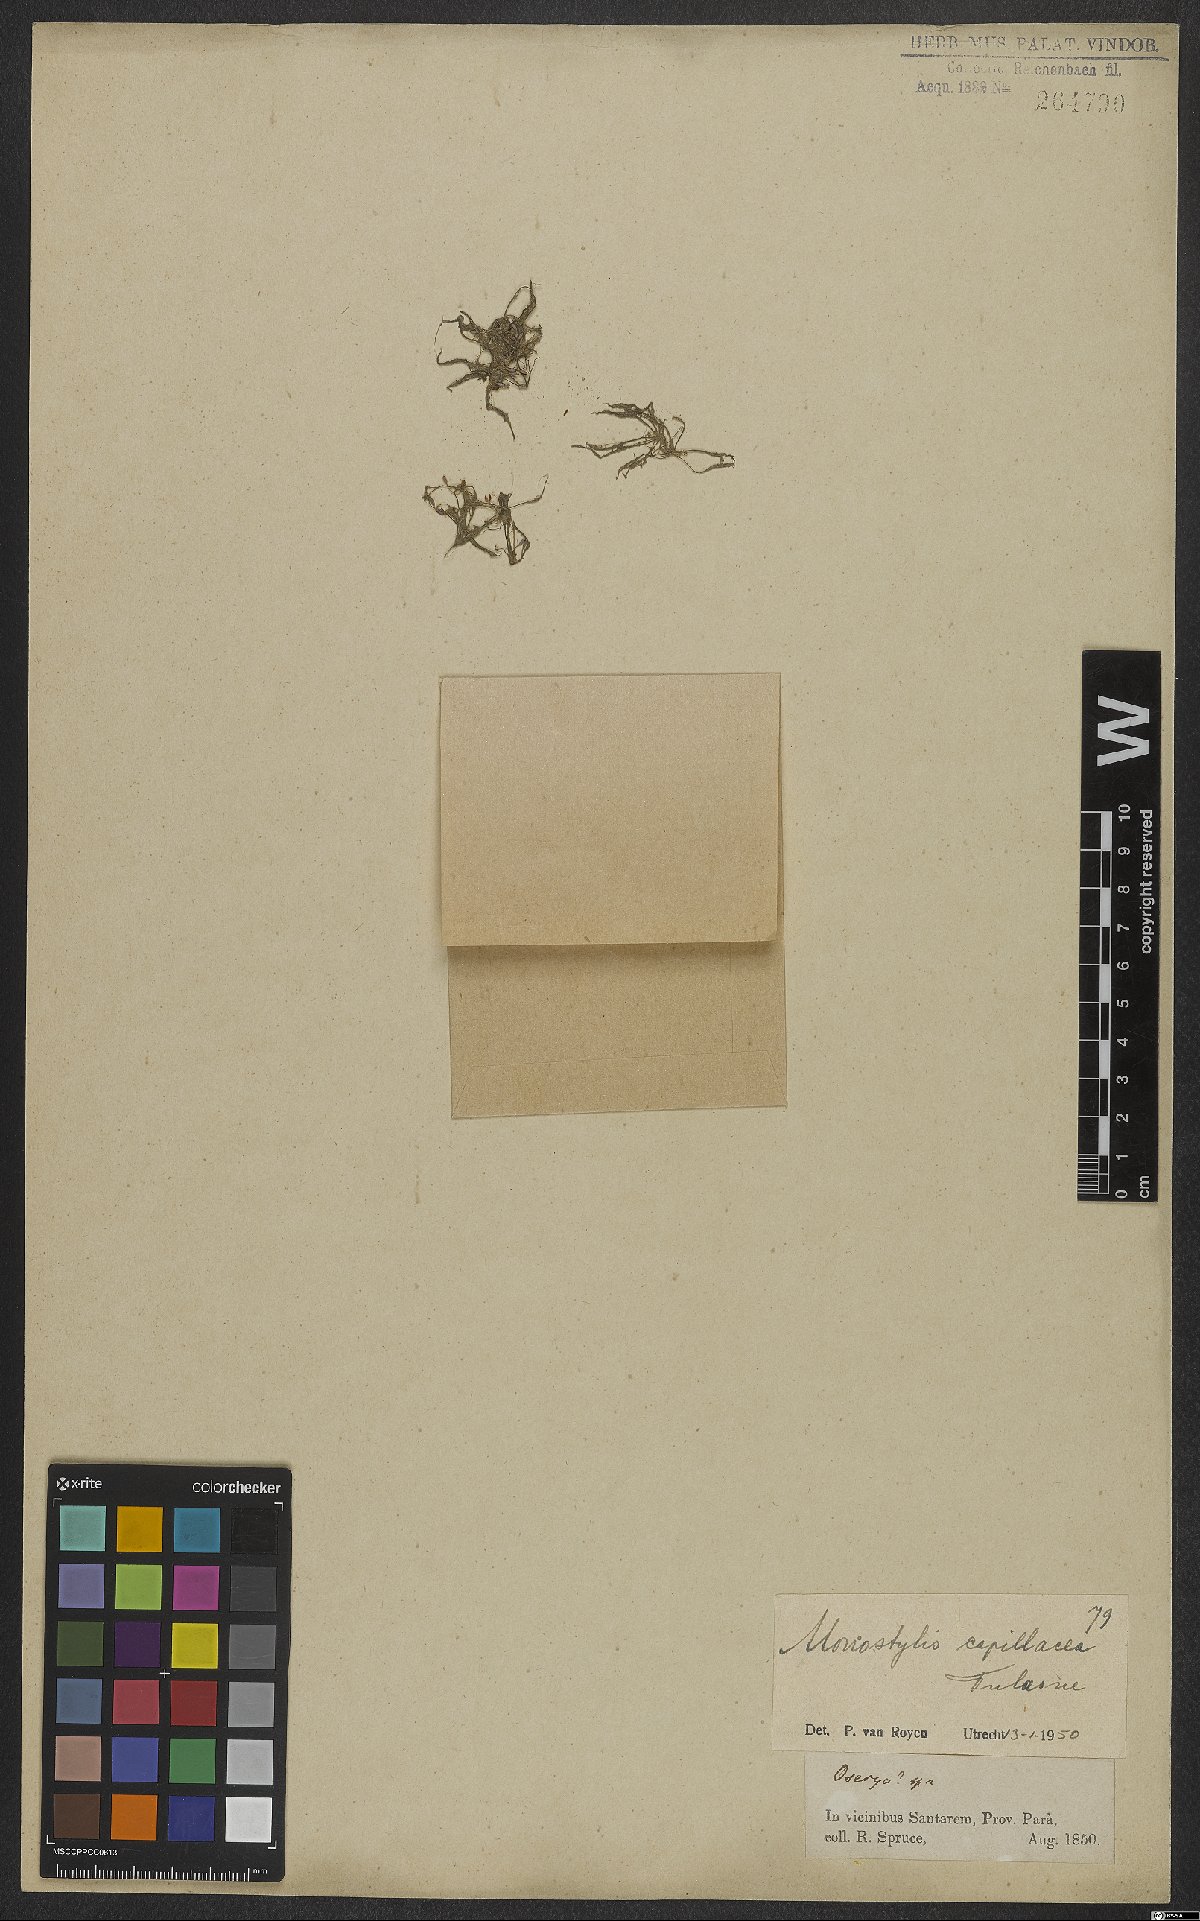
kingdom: Plantae
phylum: Tracheophyta
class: Magnoliopsida
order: Malpighiales
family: Podostemaceae
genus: Lophogyne
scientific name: Lophogyne royenella
